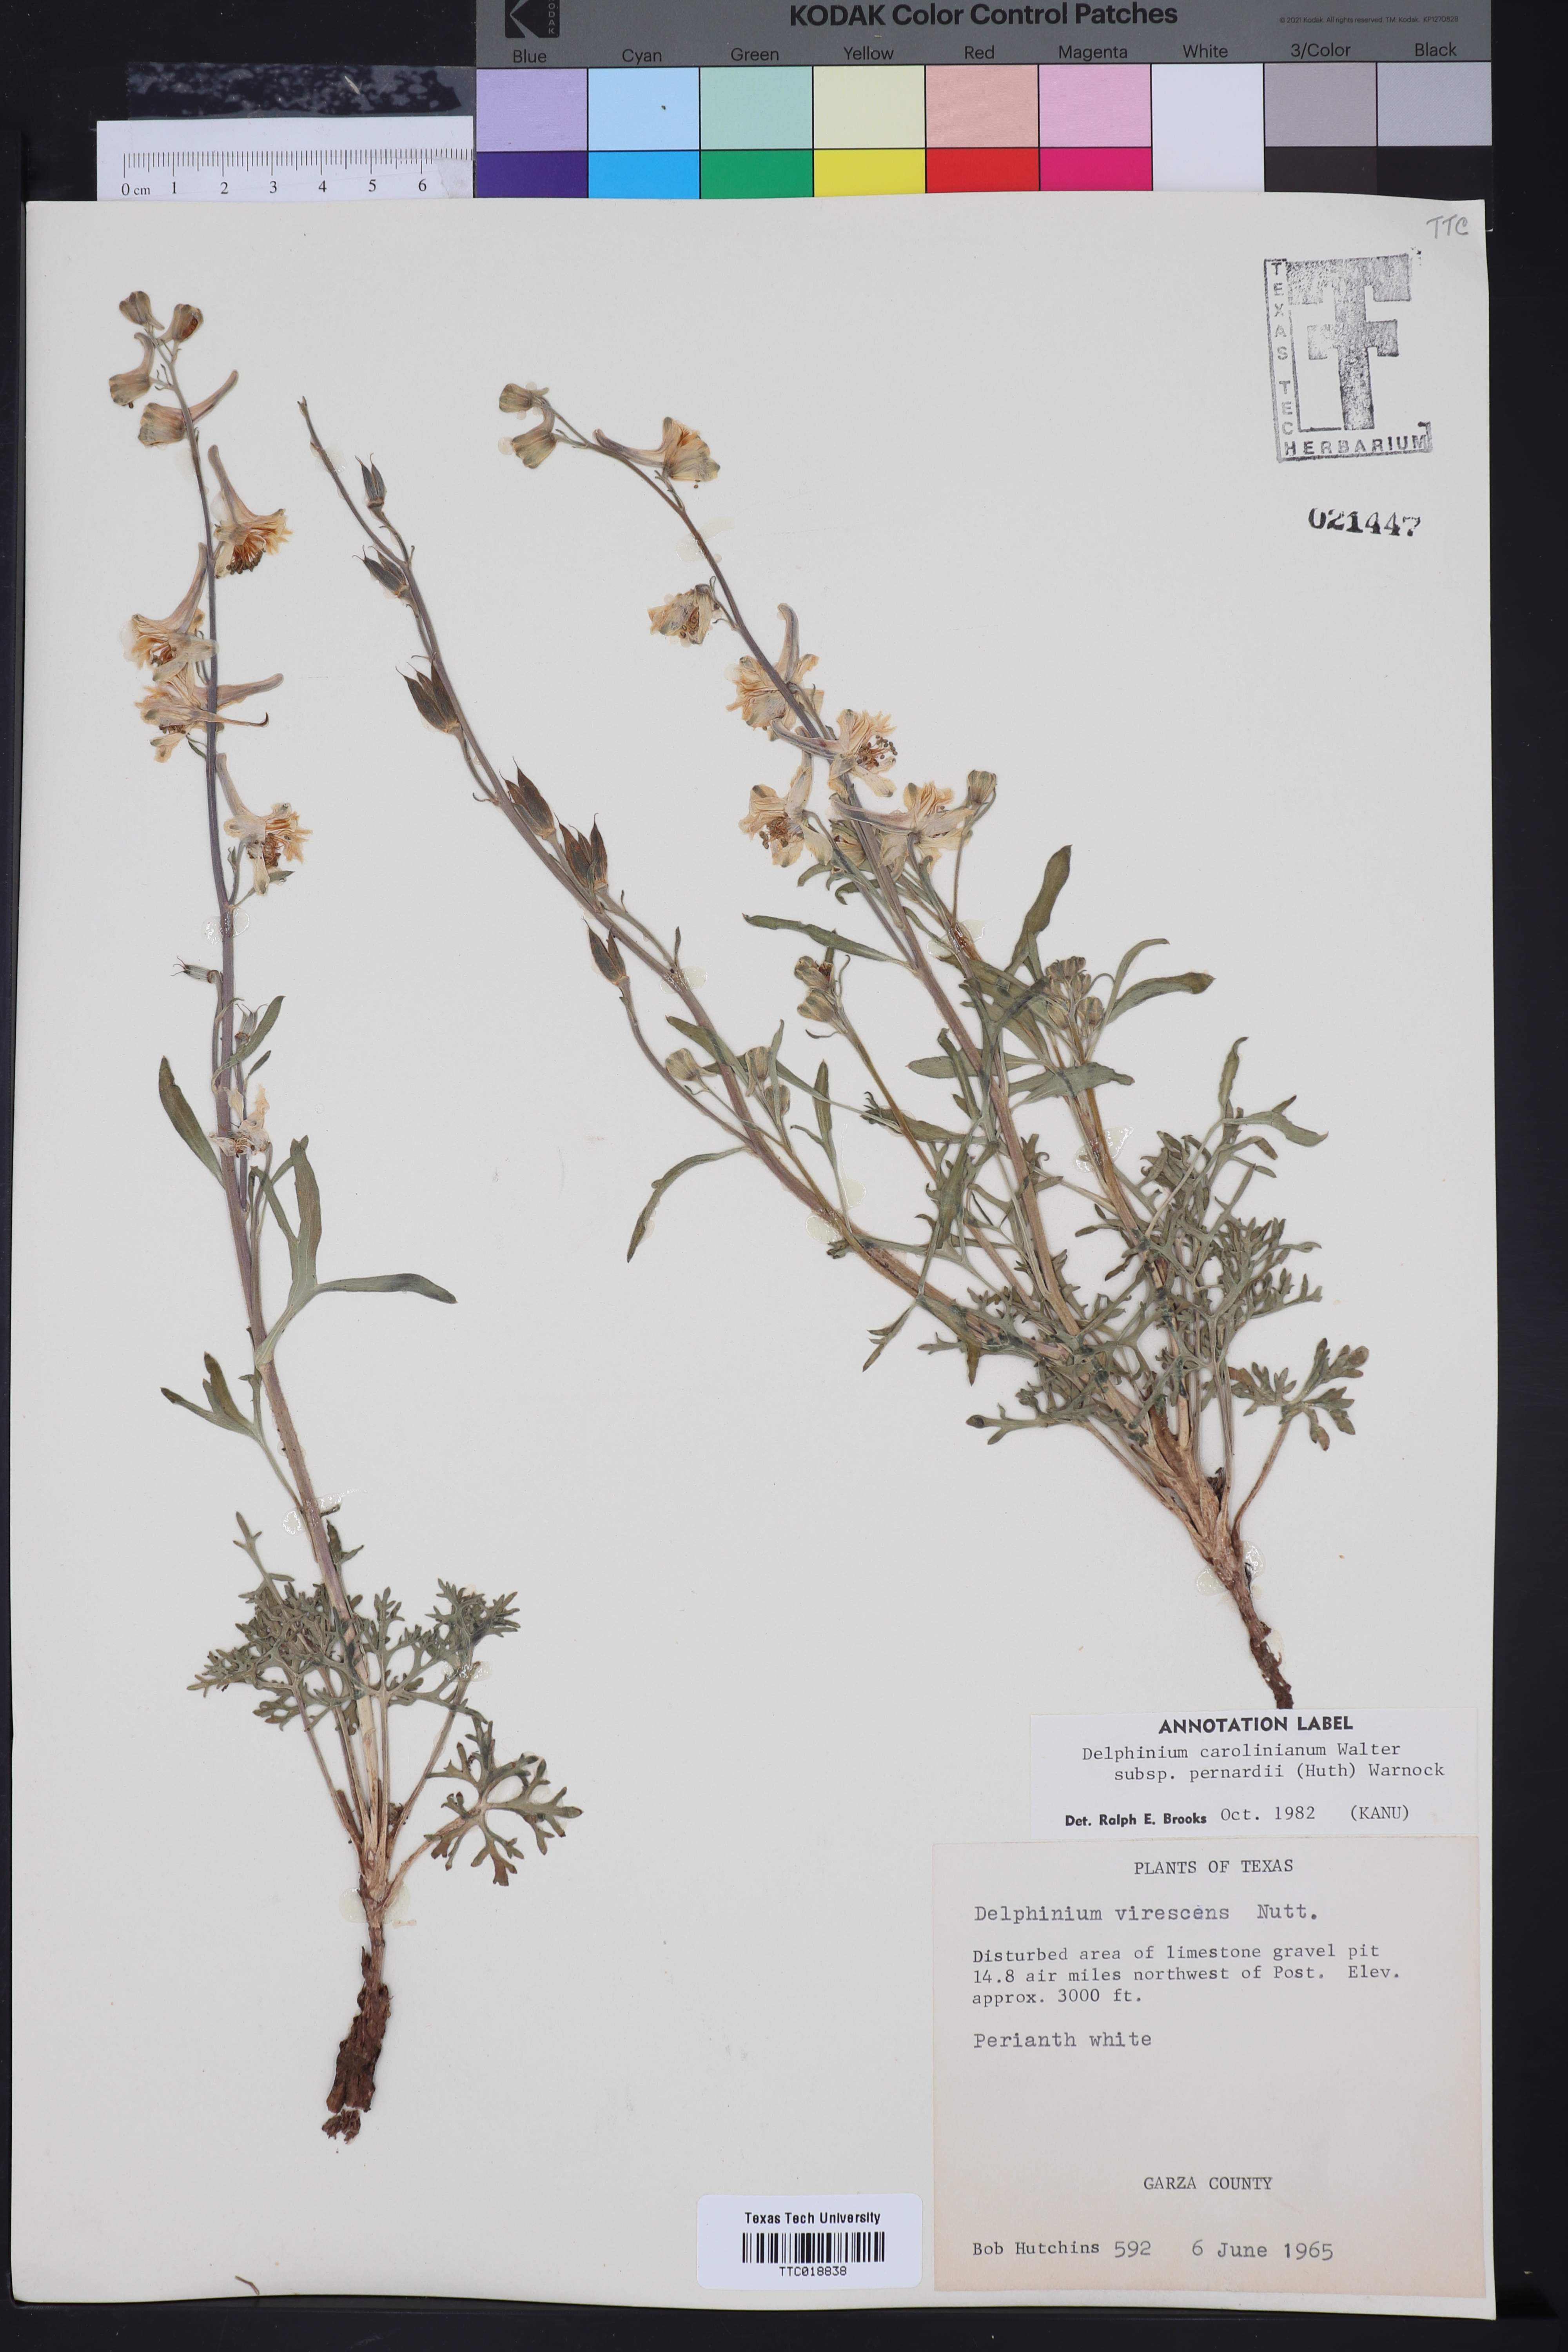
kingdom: Plantae
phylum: Tracheophyta
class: Magnoliopsida
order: Ranunculales
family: Ranunculaceae
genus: Delphinium
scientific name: Delphinium carolinianum
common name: Carolina larkspur
